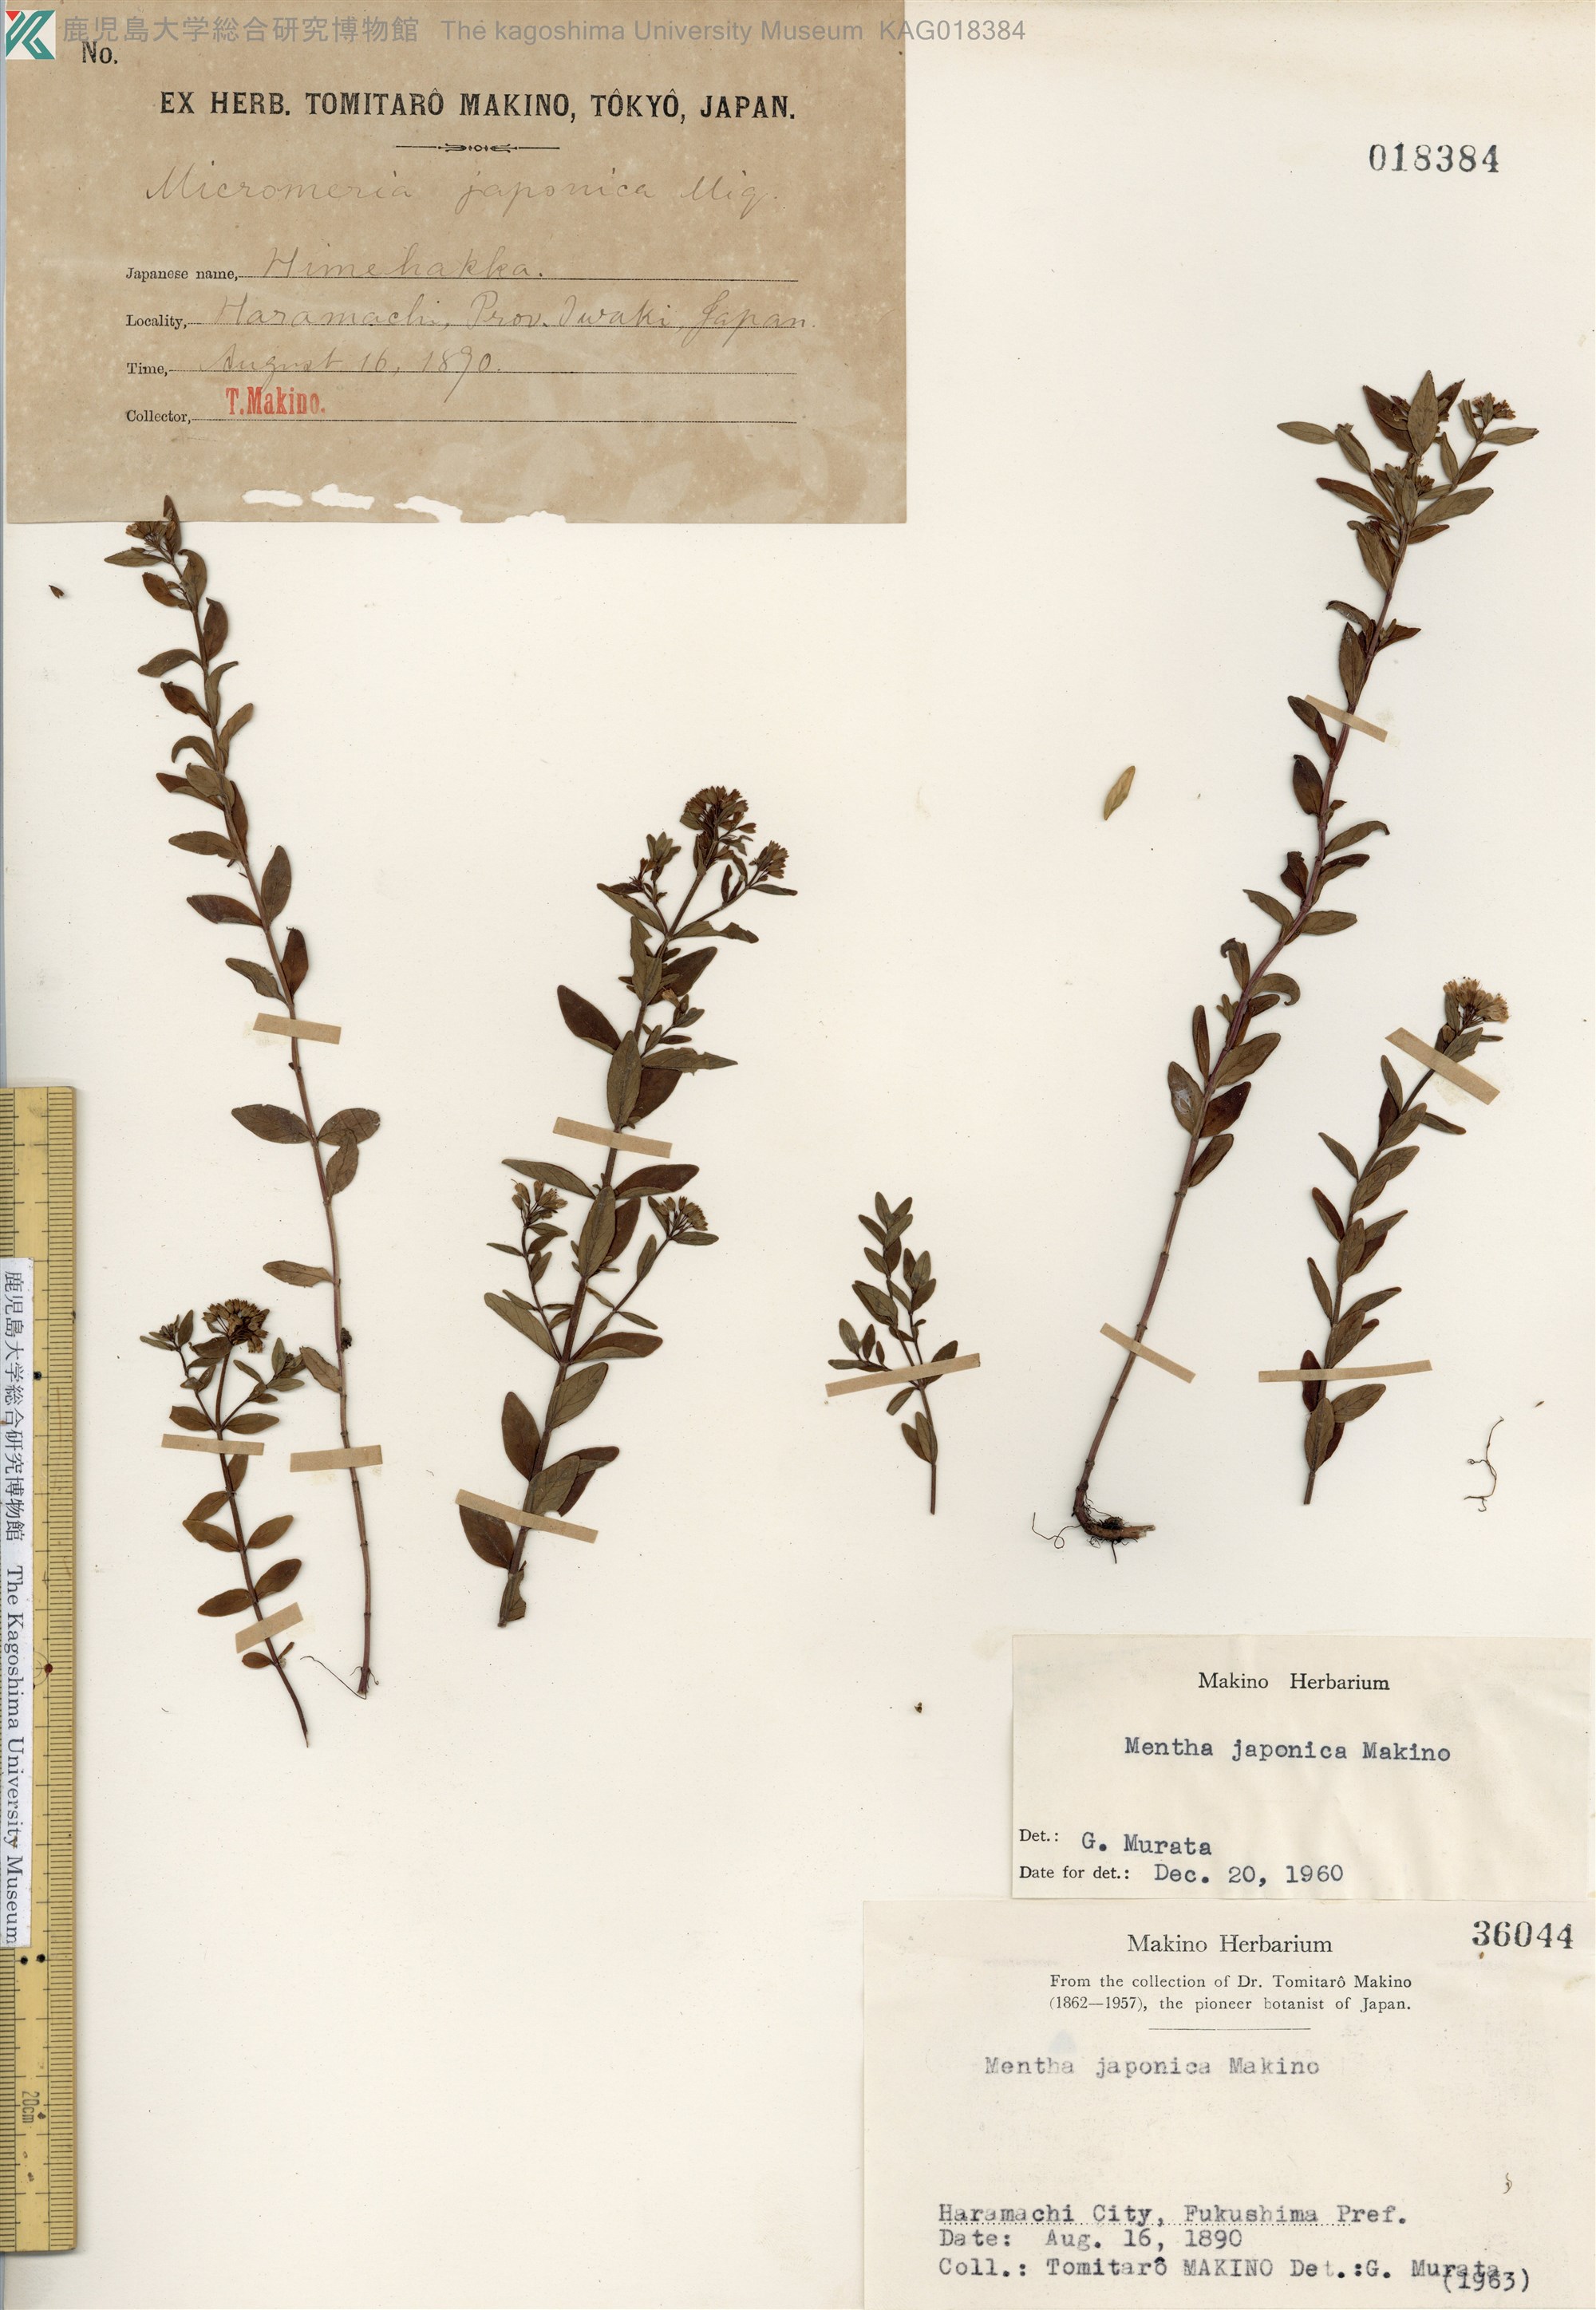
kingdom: Plantae
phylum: Tracheophyta
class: Magnoliopsida
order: Lamiales
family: Lamiaceae
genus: Mentha
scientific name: Mentha japonica
